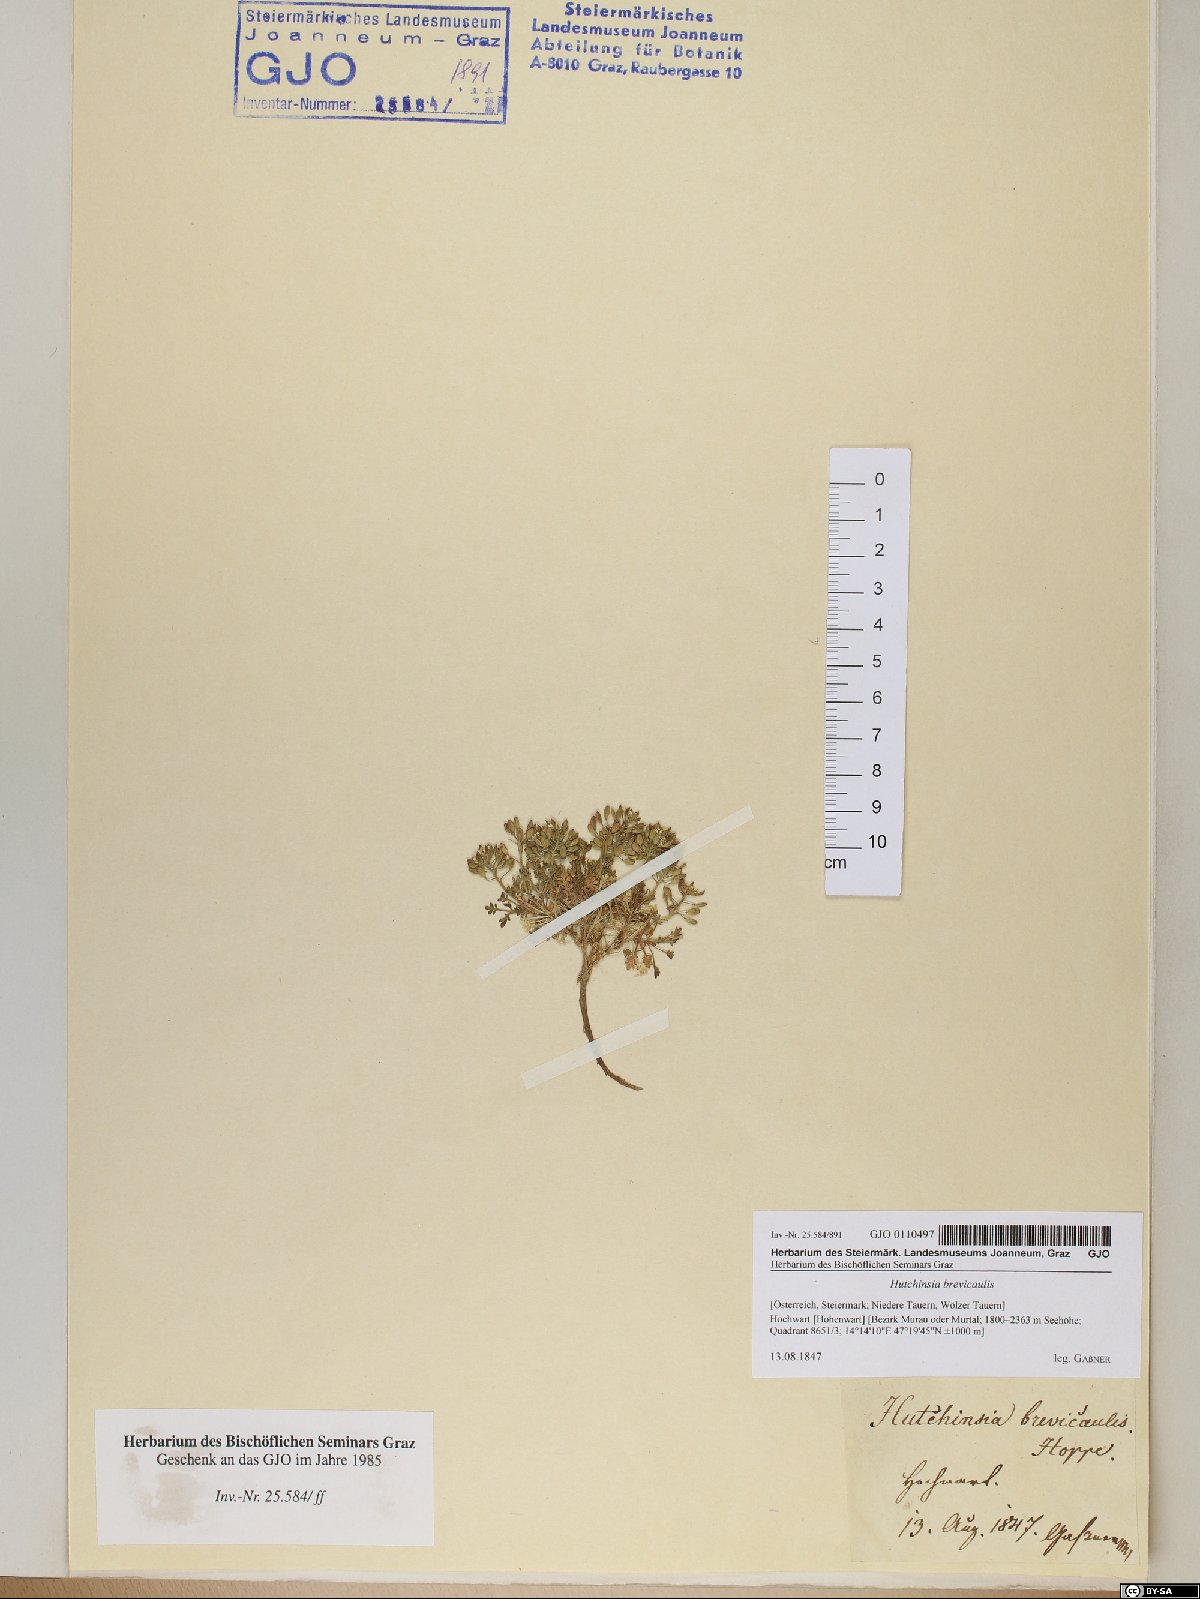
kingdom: Plantae
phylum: Tracheophyta
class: Magnoliopsida
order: Brassicales
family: Brassicaceae
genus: Hornungia
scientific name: Hornungia alpina
